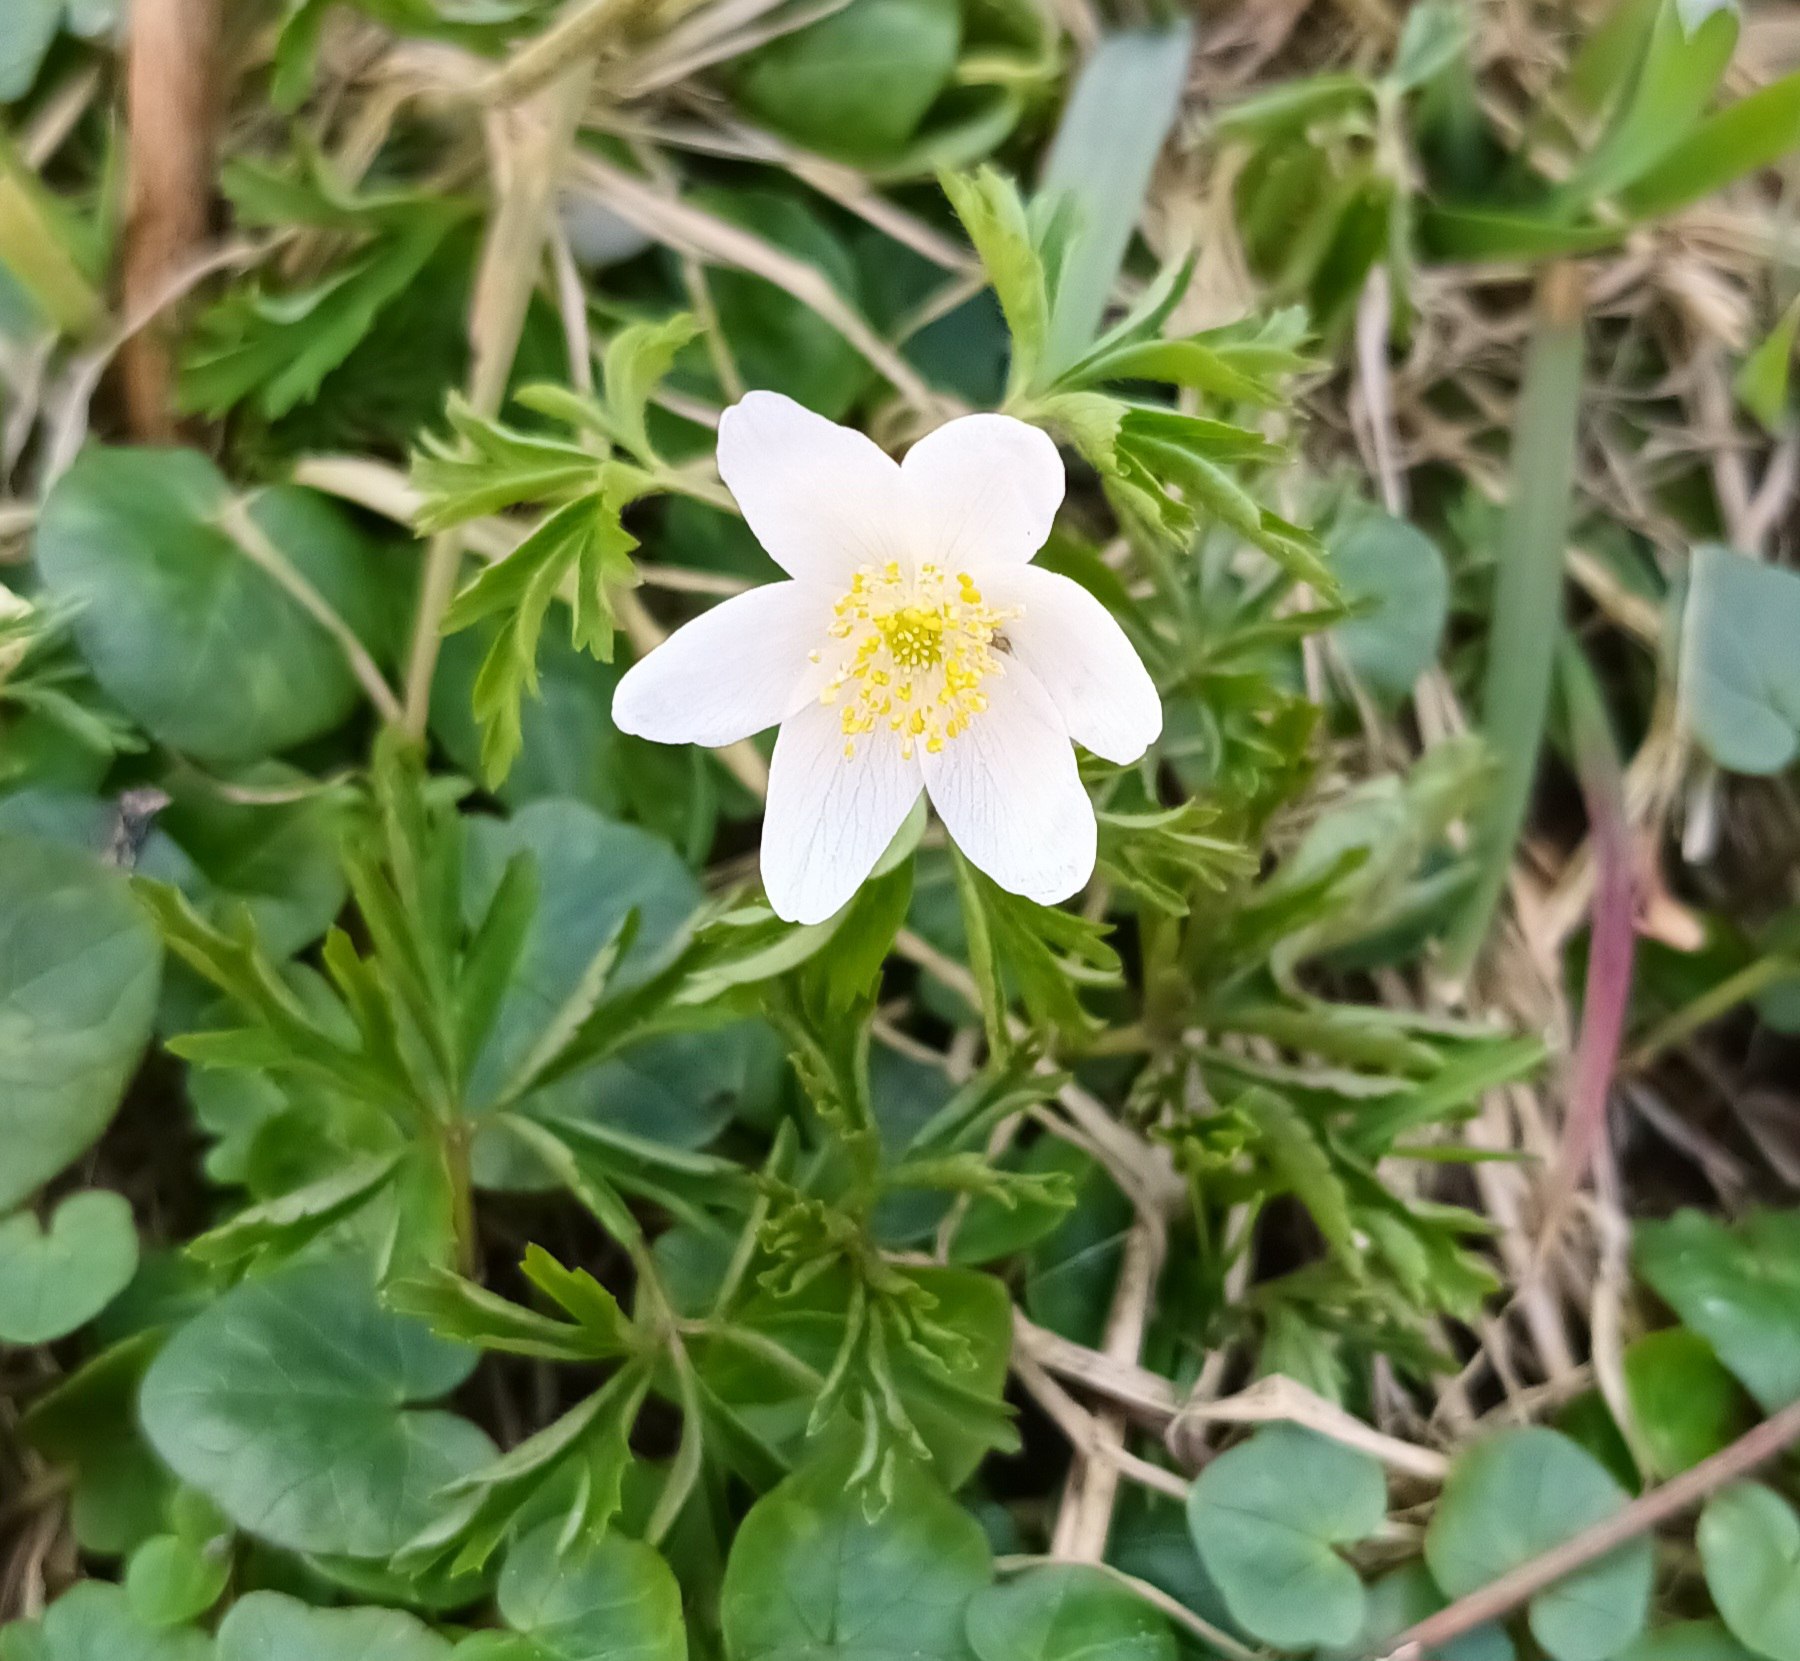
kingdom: Plantae
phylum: Tracheophyta
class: Magnoliopsida
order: Ranunculales
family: Ranunculaceae
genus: Anemone
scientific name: Anemone nemorosa
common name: Hvid anemone
